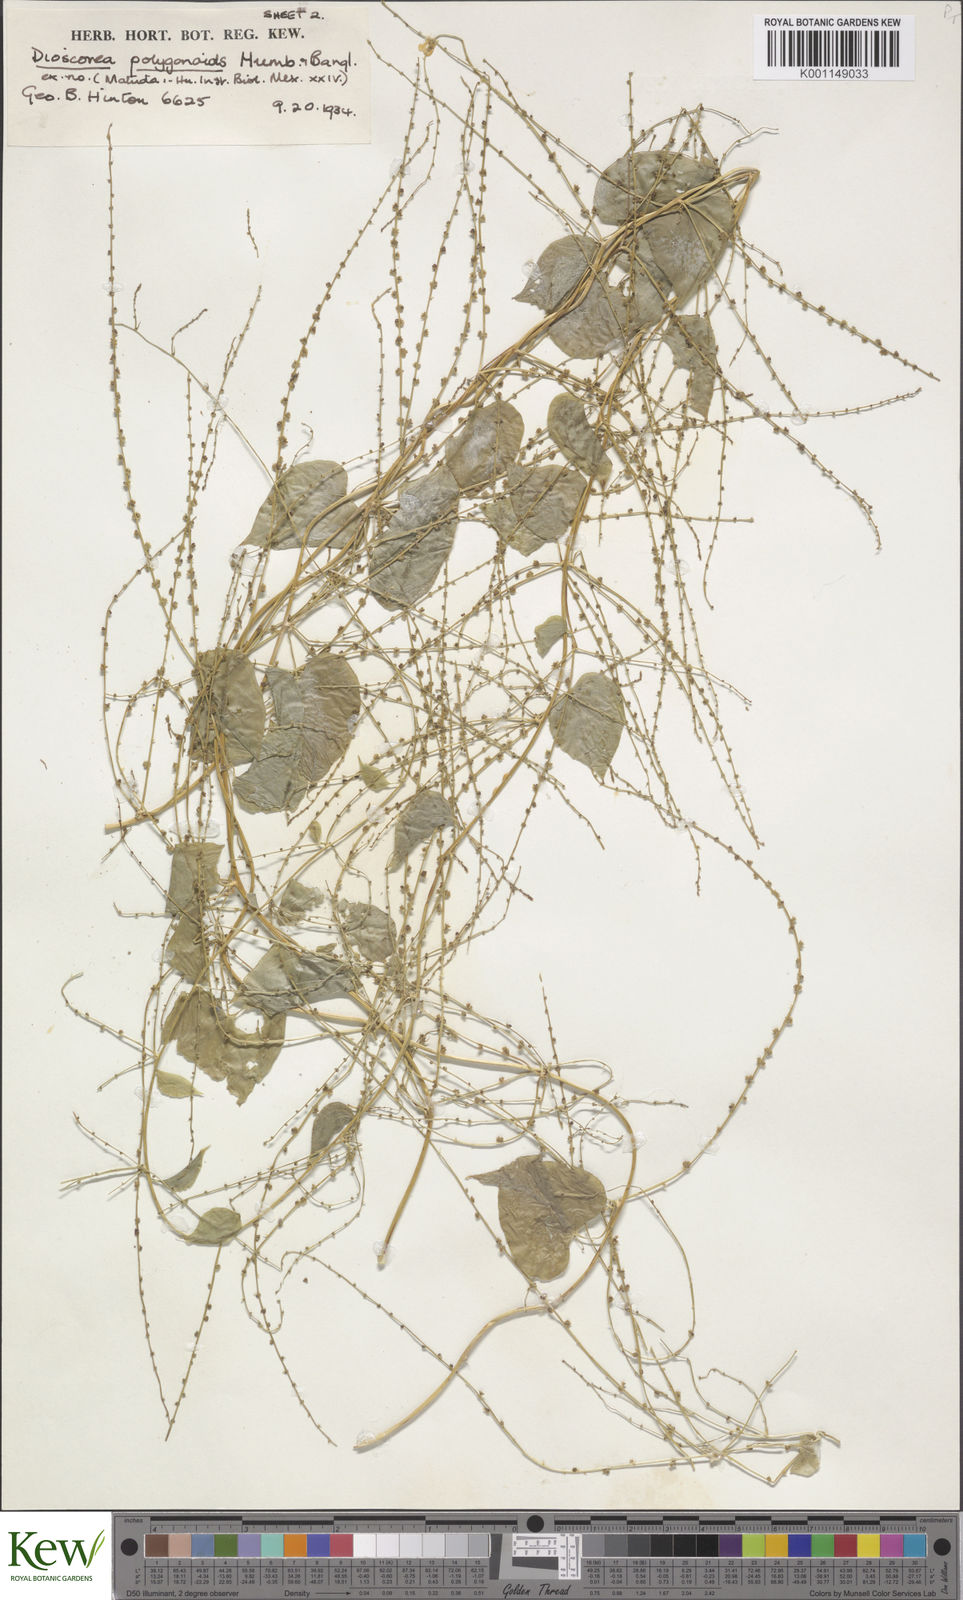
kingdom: Plantae
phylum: Tracheophyta
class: Liliopsida
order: Dioscoreales
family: Dioscoreaceae
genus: Dioscorea
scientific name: Dioscorea polygonoides
